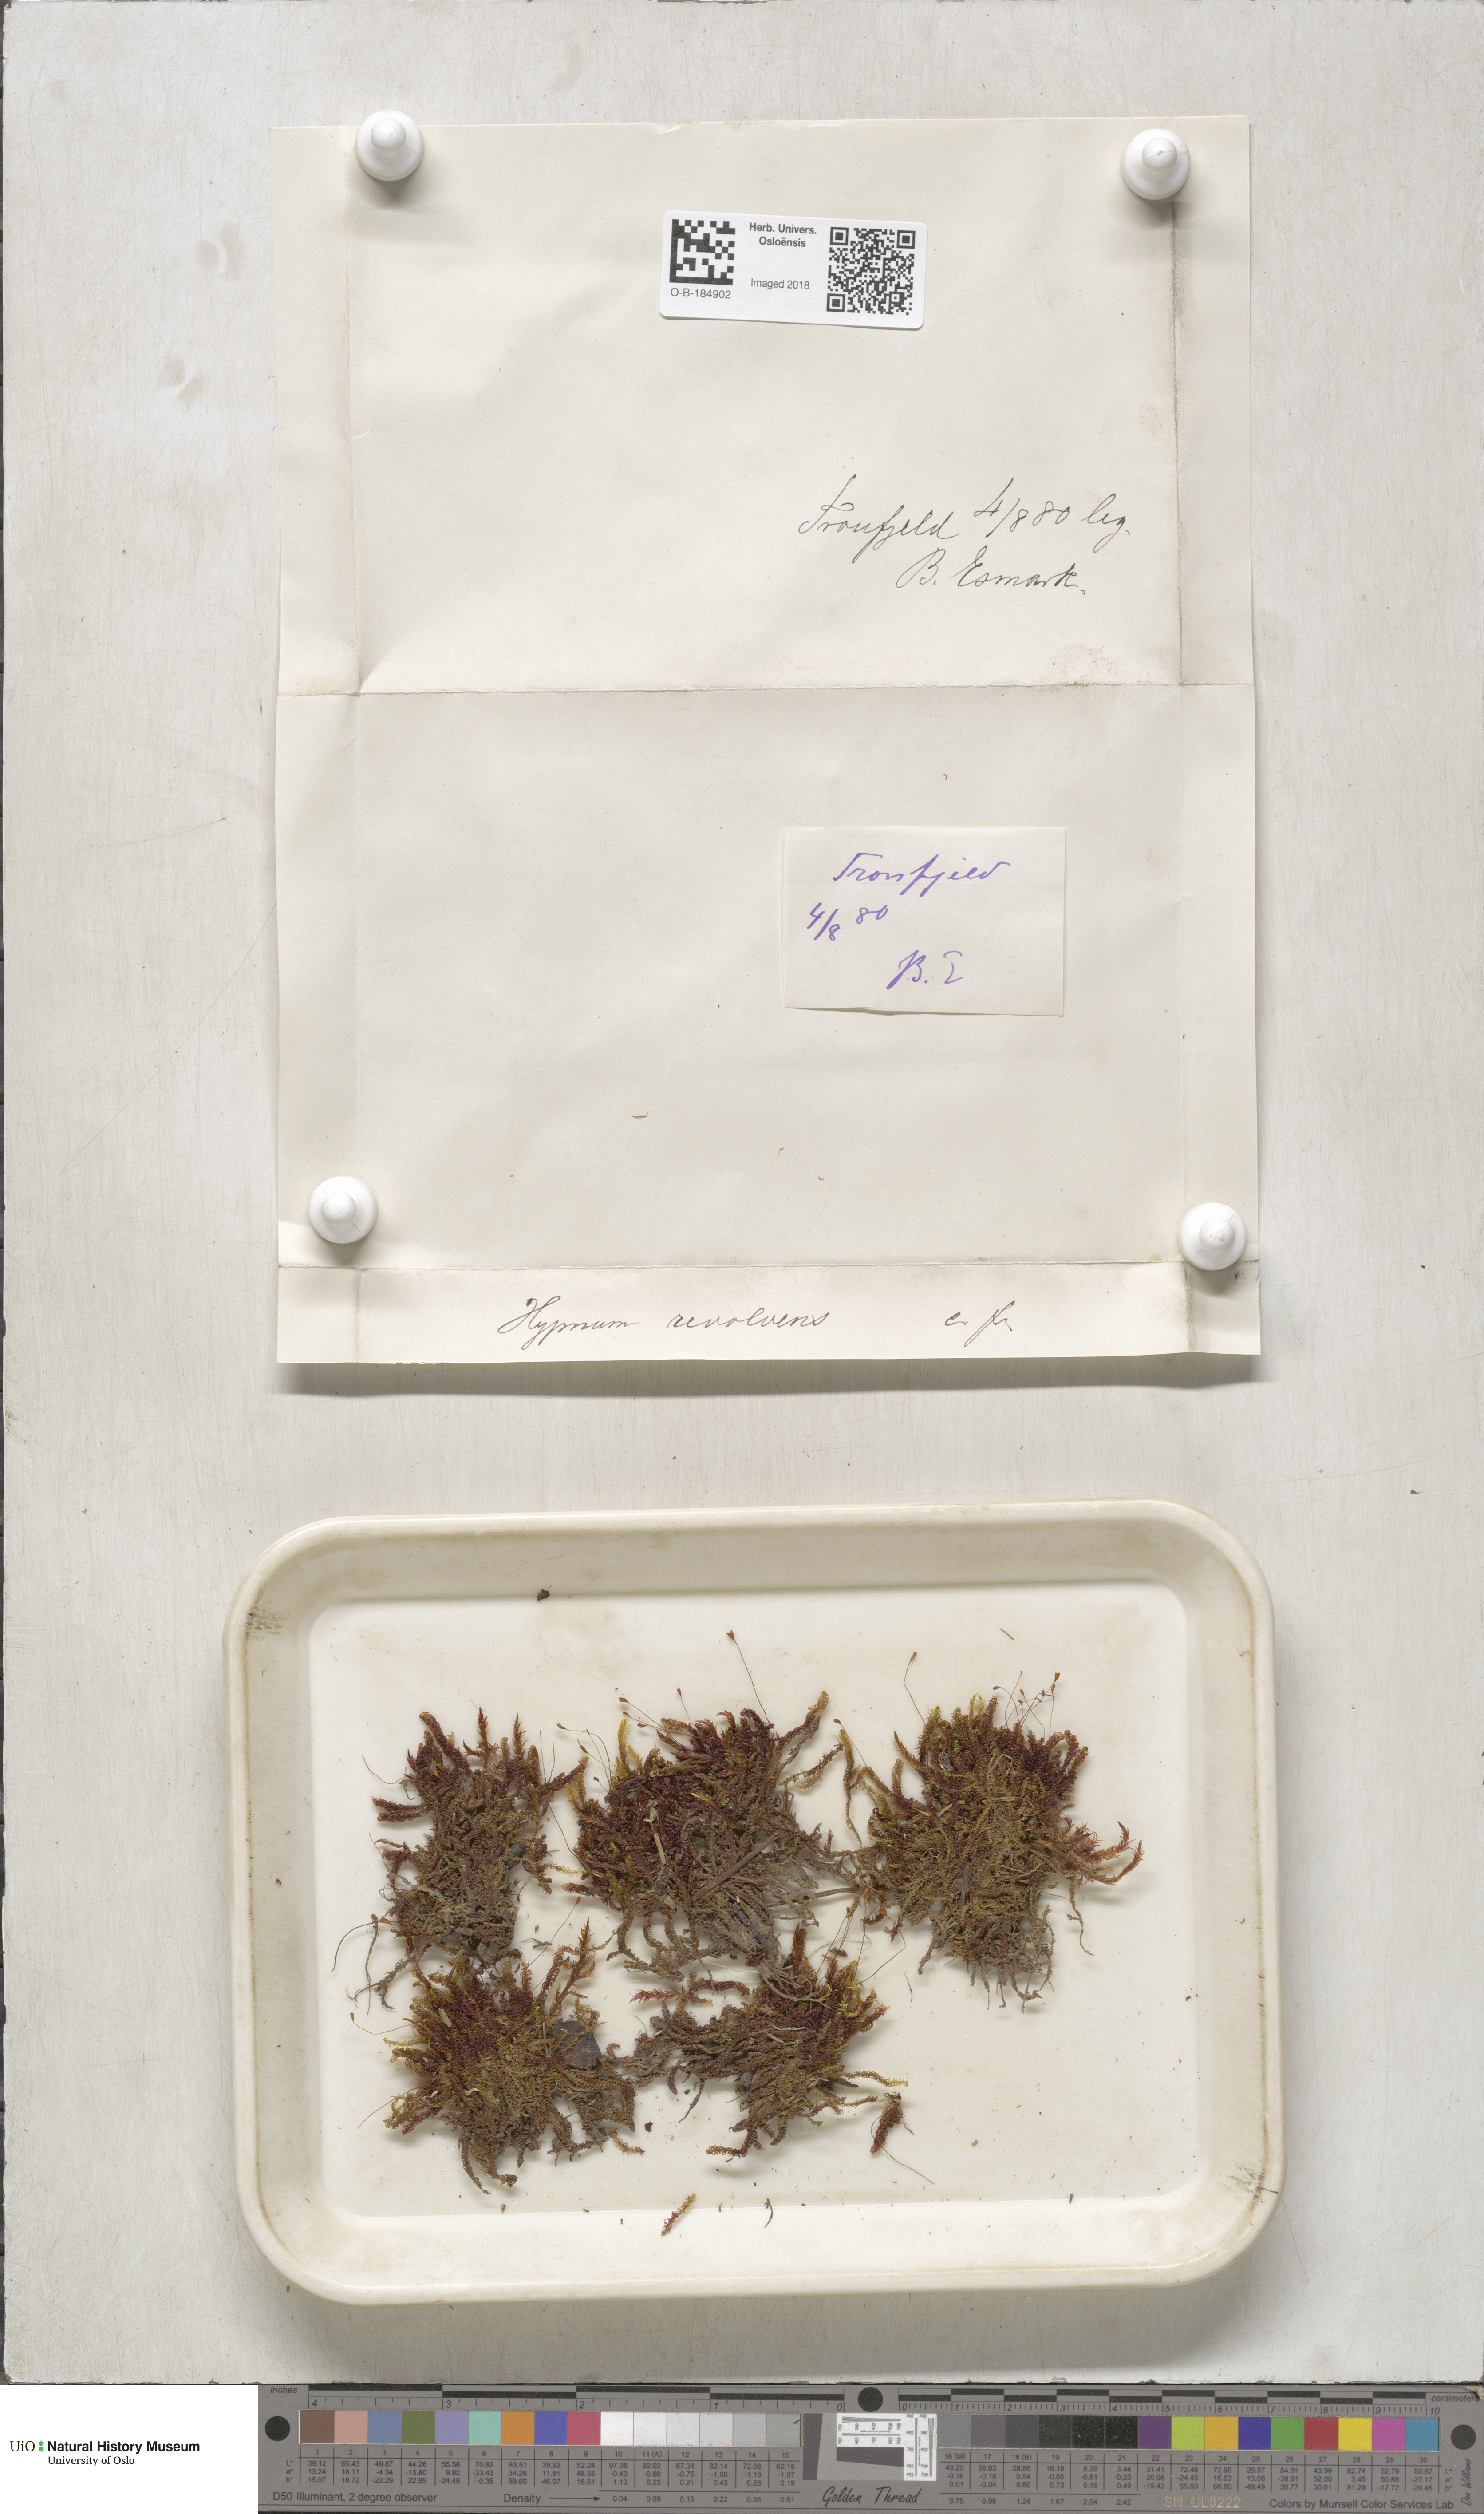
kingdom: Plantae
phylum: Bryophyta
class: Bryopsida
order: Hypnales
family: Scorpidiaceae
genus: Scorpidium
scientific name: Scorpidium revolvens
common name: Rusty hook moss
